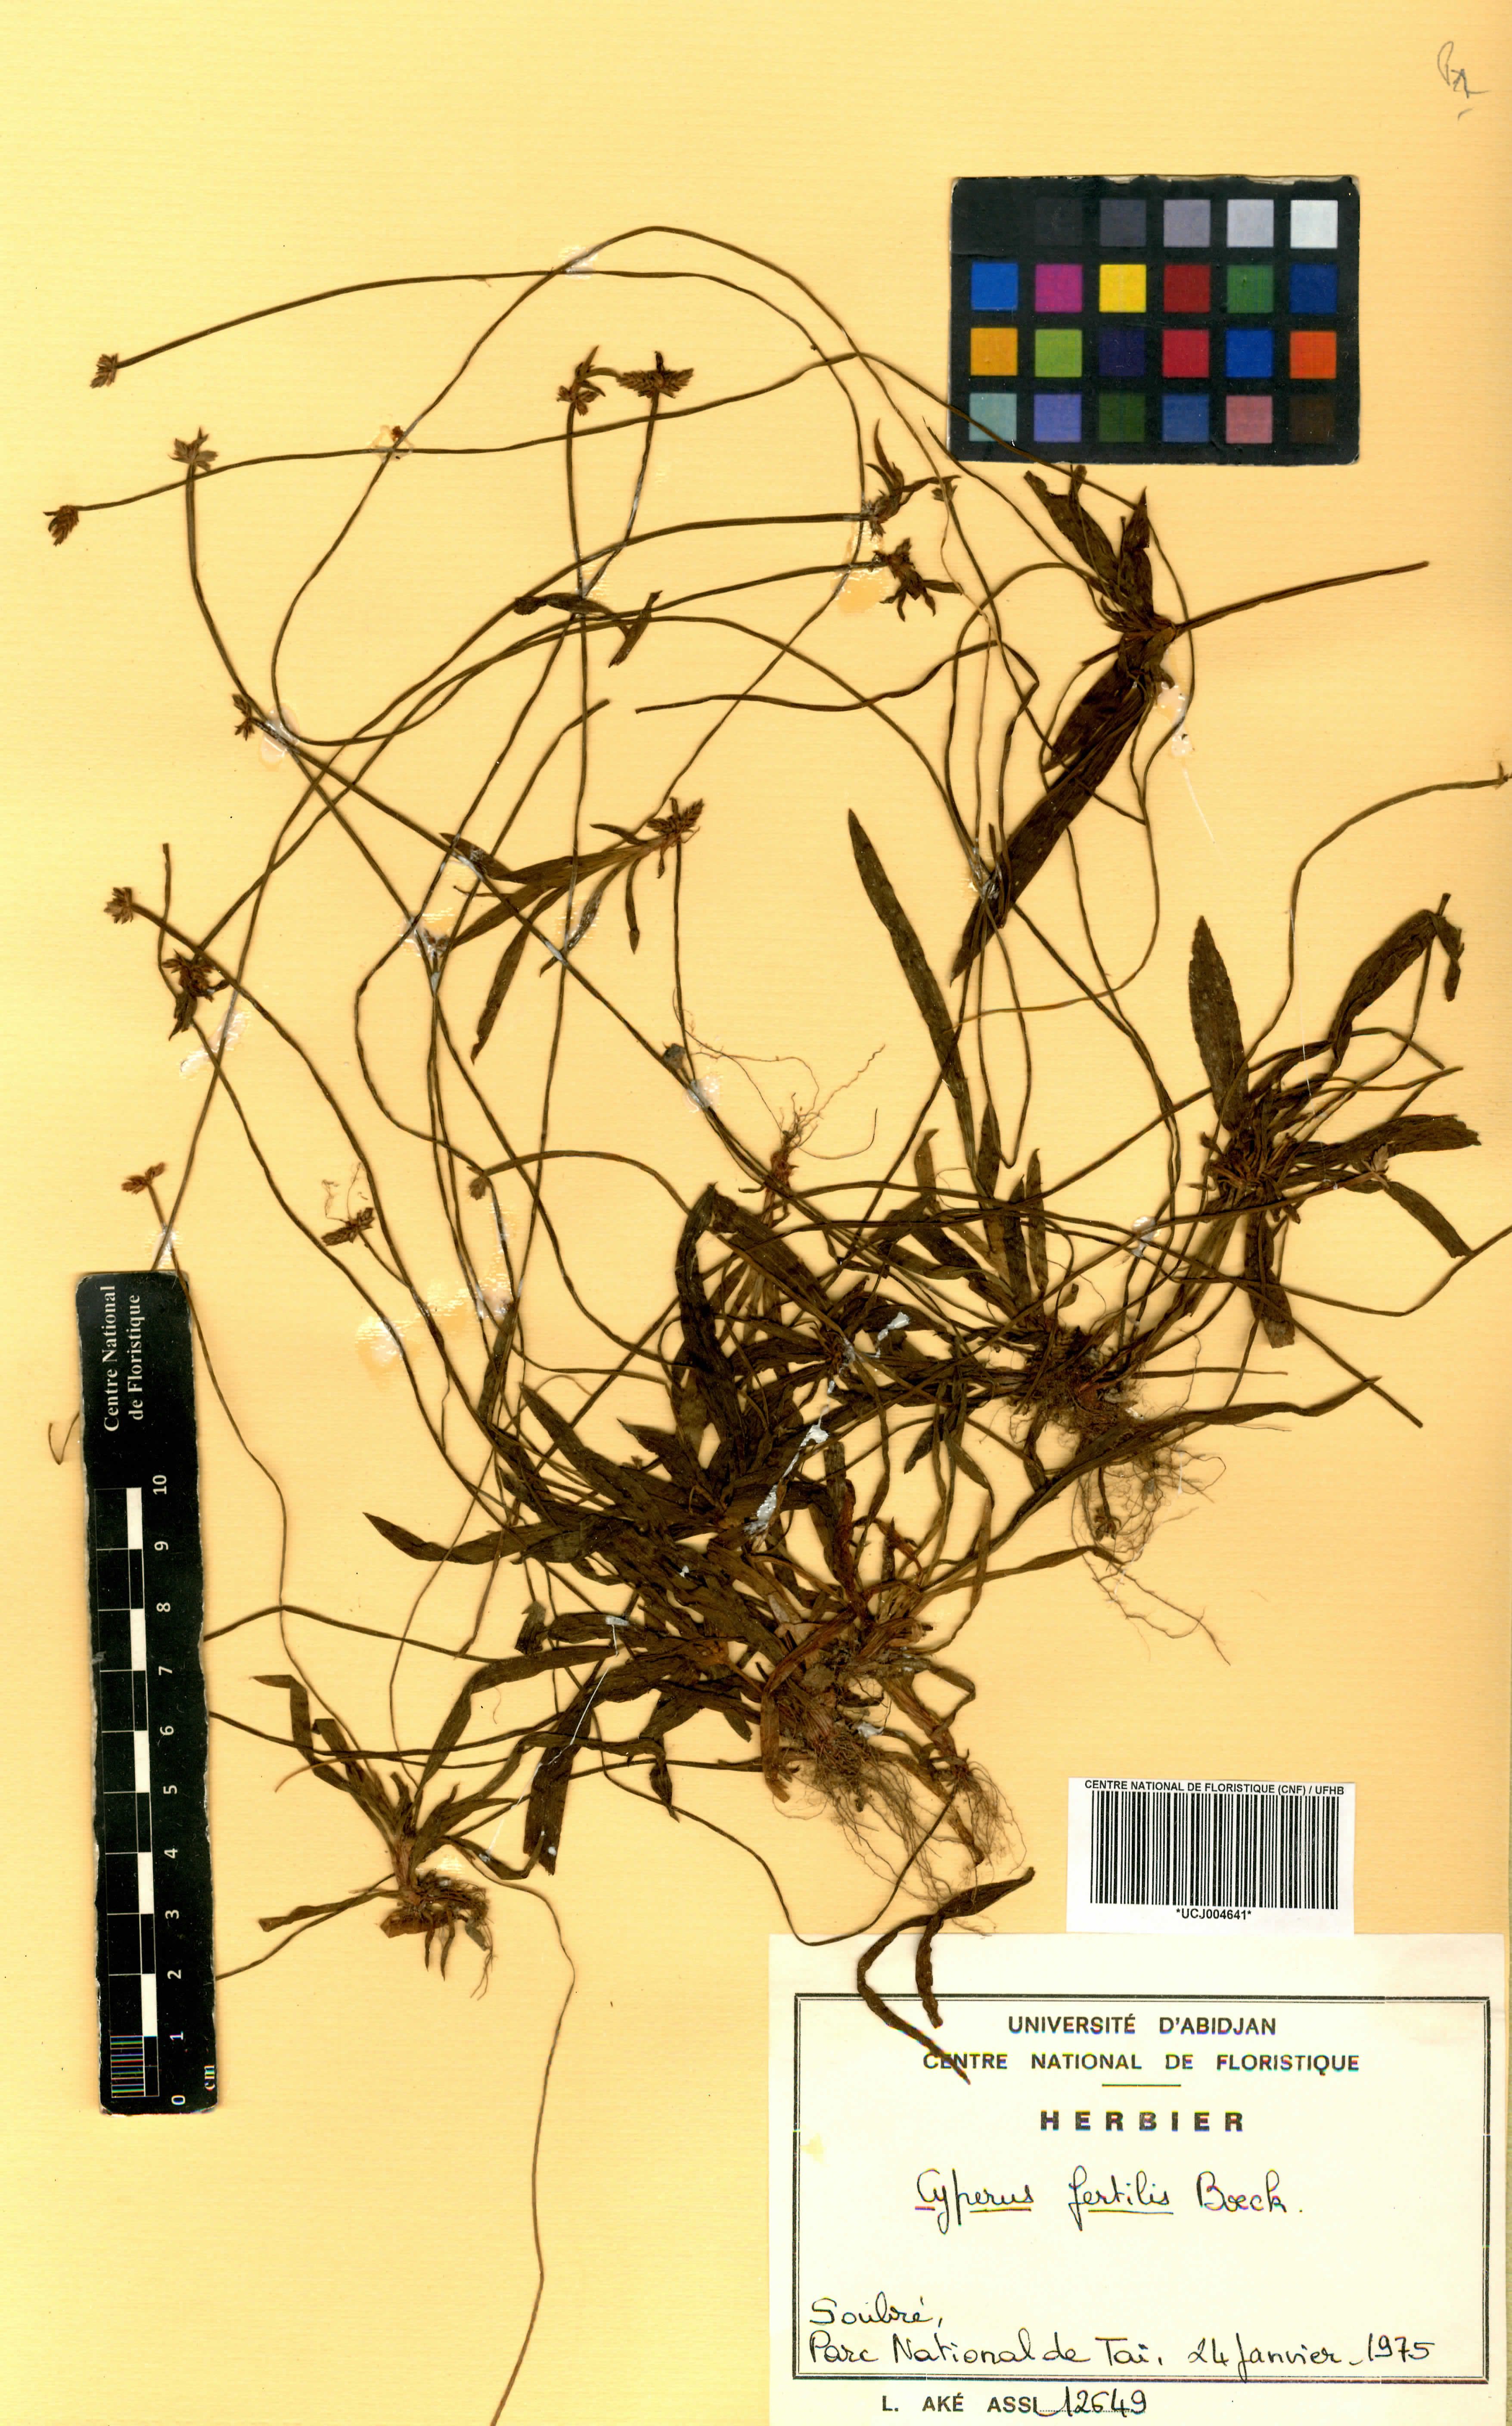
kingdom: Plantae
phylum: Tracheophyta
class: Liliopsida
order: Poales
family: Cyperaceae
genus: Cyperus
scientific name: Cyperus fertilis
